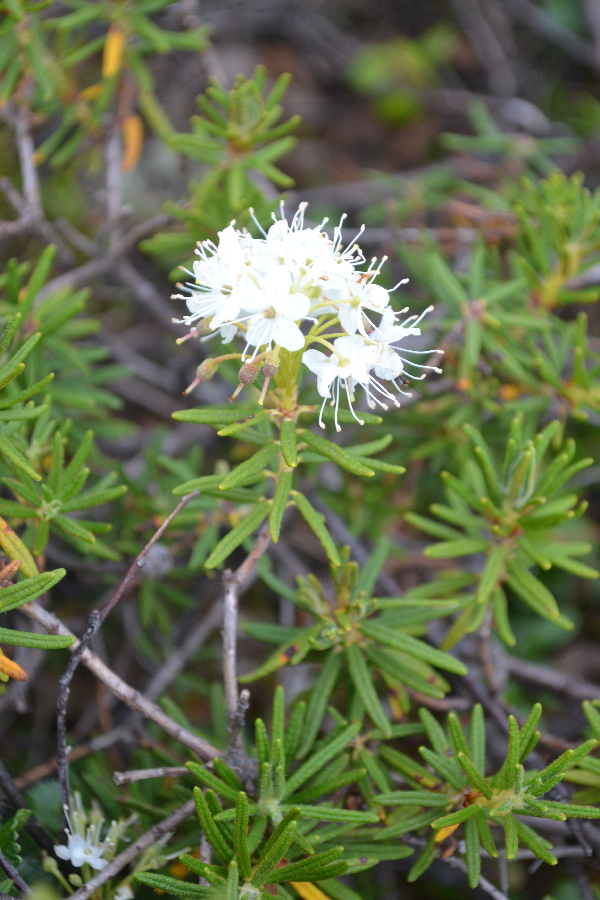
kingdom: Plantae
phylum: Tracheophyta
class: Magnoliopsida
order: Ericales
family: Ericaceae
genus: Rhododendron
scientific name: Rhododendron tomentosum
